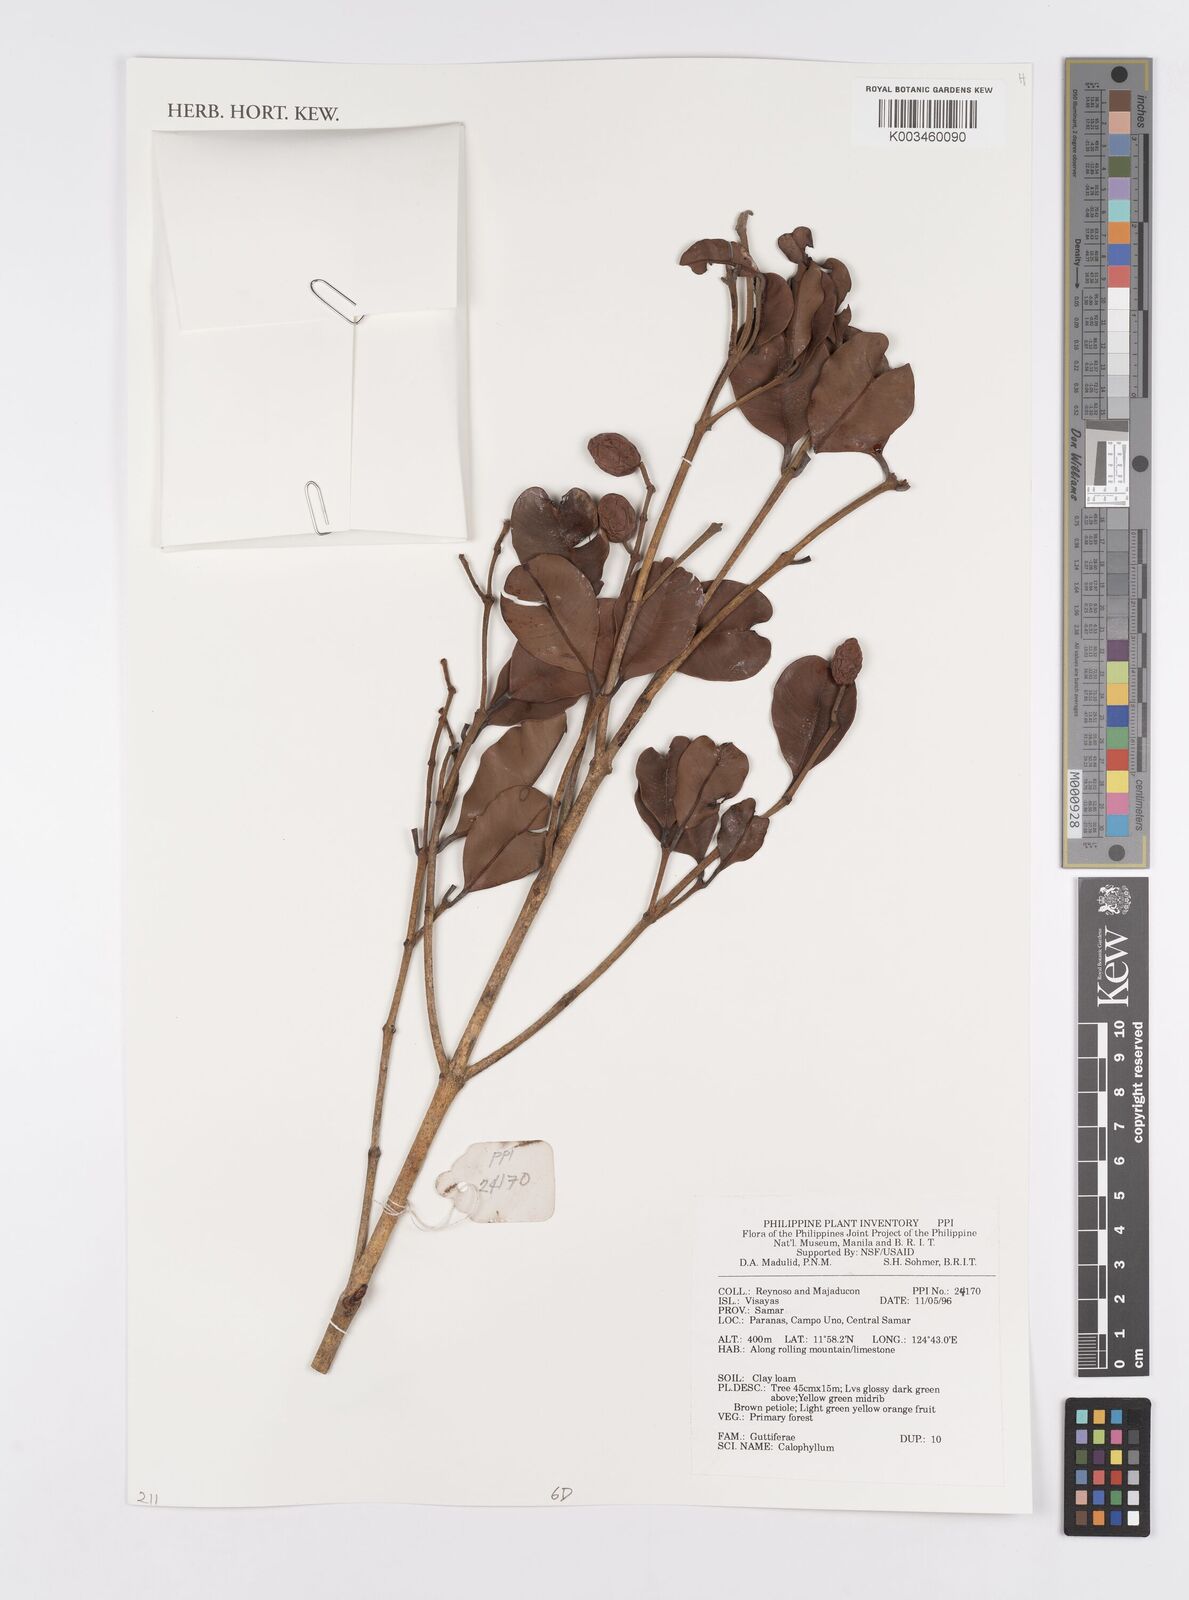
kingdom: Plantae
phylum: Tracheophyta
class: Magnoliopsida
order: Malpighiales
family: Calophyllaceae
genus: Calophyllum
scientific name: Calophyllum
